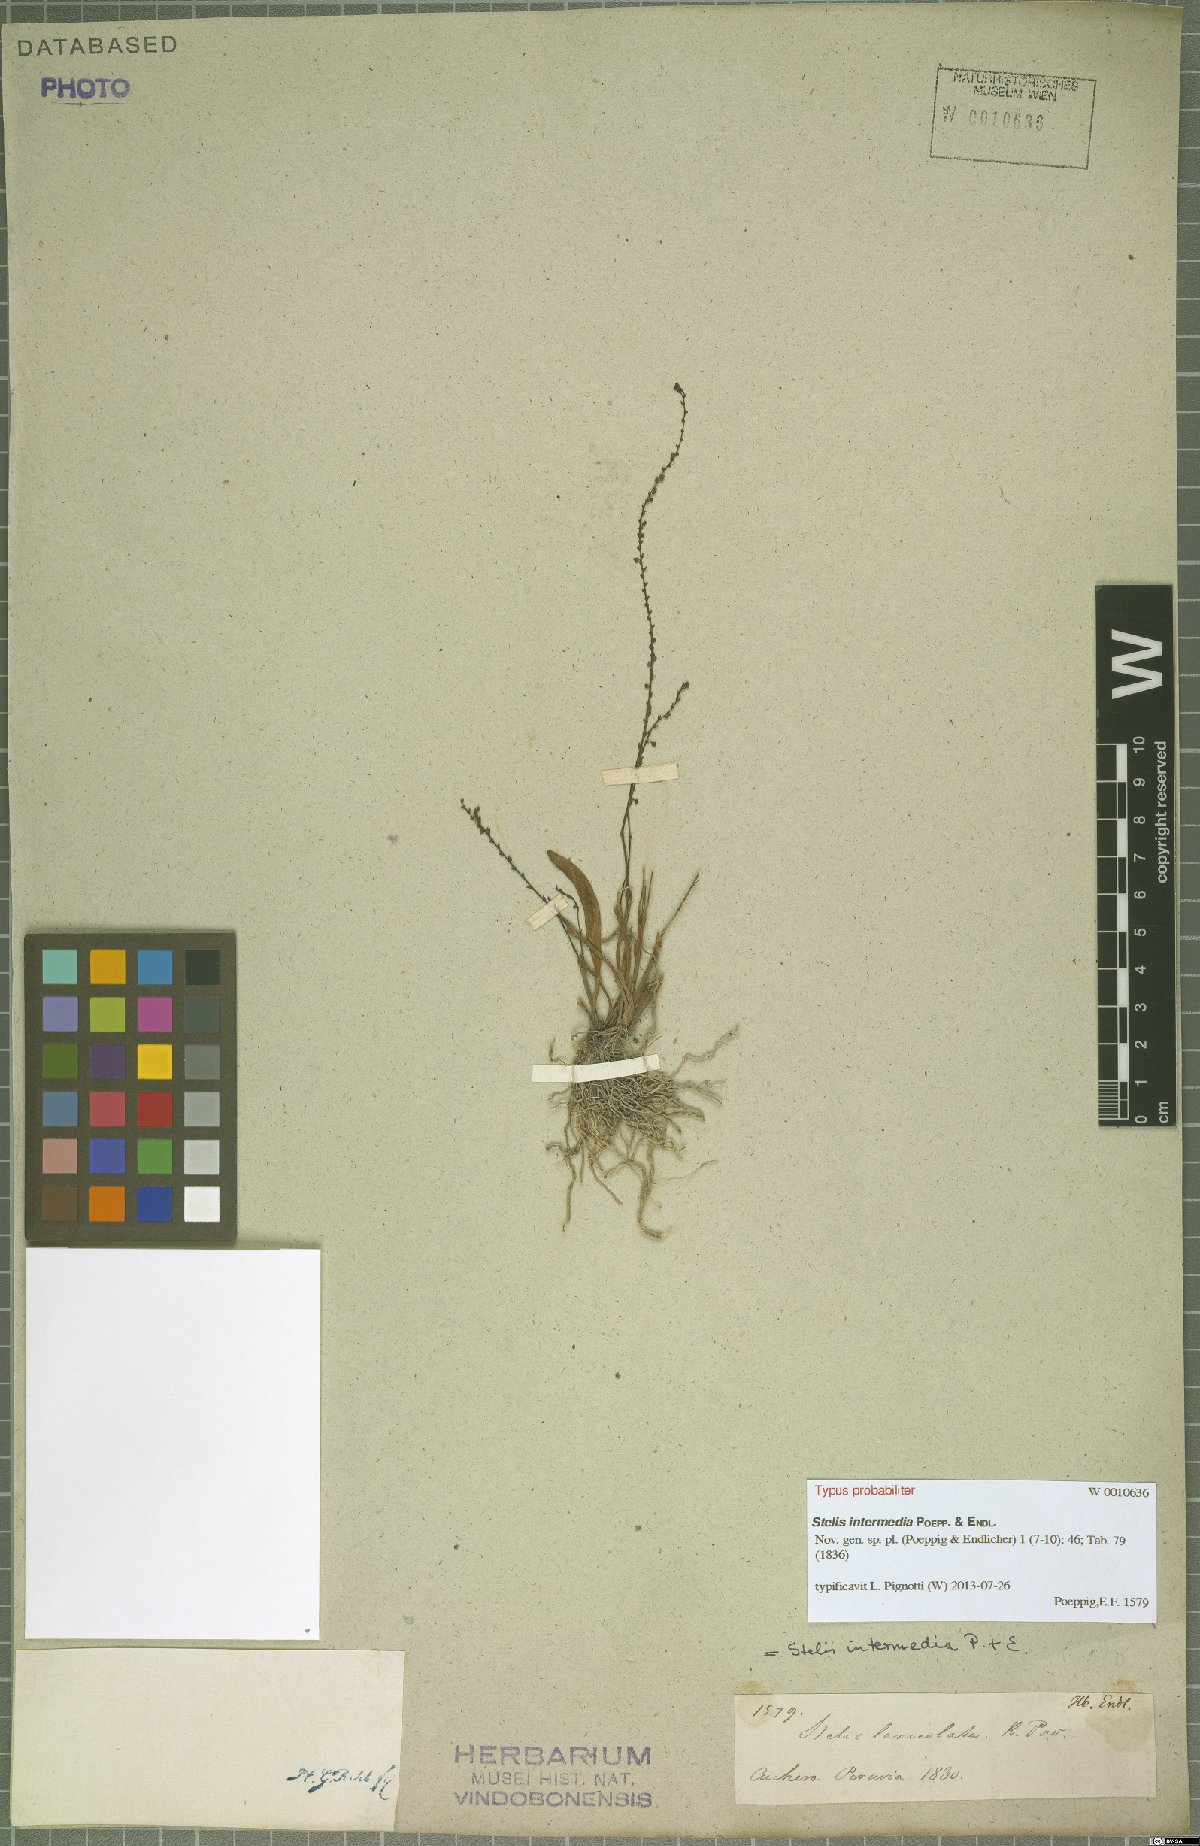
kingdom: Plantae
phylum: Tracheophyta
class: Liliopsida
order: Asparagales
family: Orchidaceae
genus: Stelis
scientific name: Stelis intermedia
